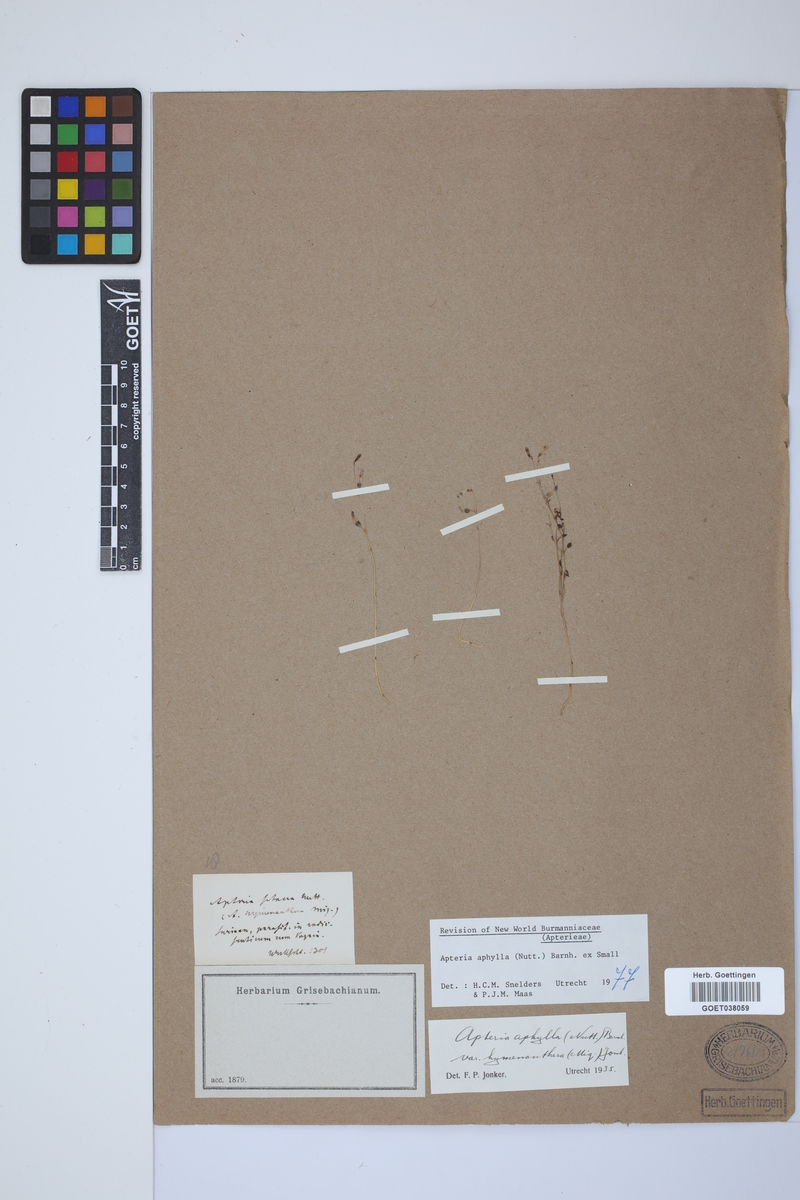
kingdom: Plantae
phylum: Tracheophyta
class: Liliopsida
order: Dioscoreales
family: Burmanniaceae
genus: Apteria
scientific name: Apteria aphylla
